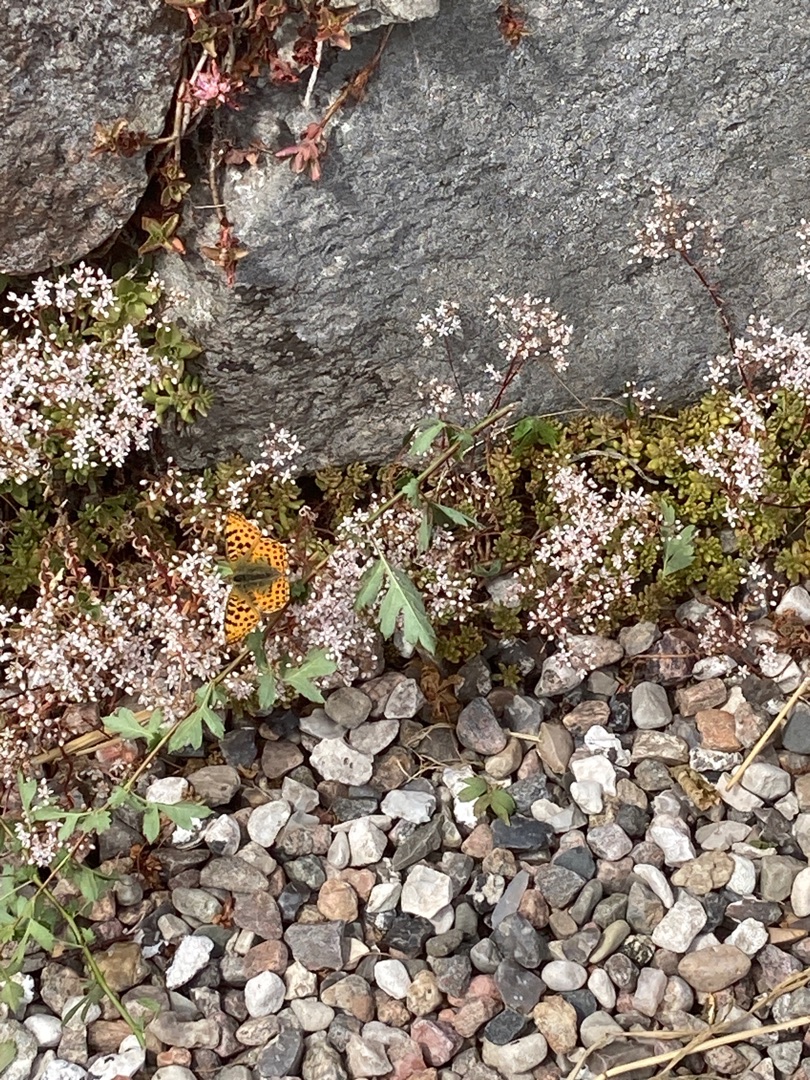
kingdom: Animalia
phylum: Arthropoda
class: Insecta
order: Lepidoptera
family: Nymphalidae
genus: Issoria
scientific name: Issoria lathonia
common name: Storplettet perlemorsommerfugl
